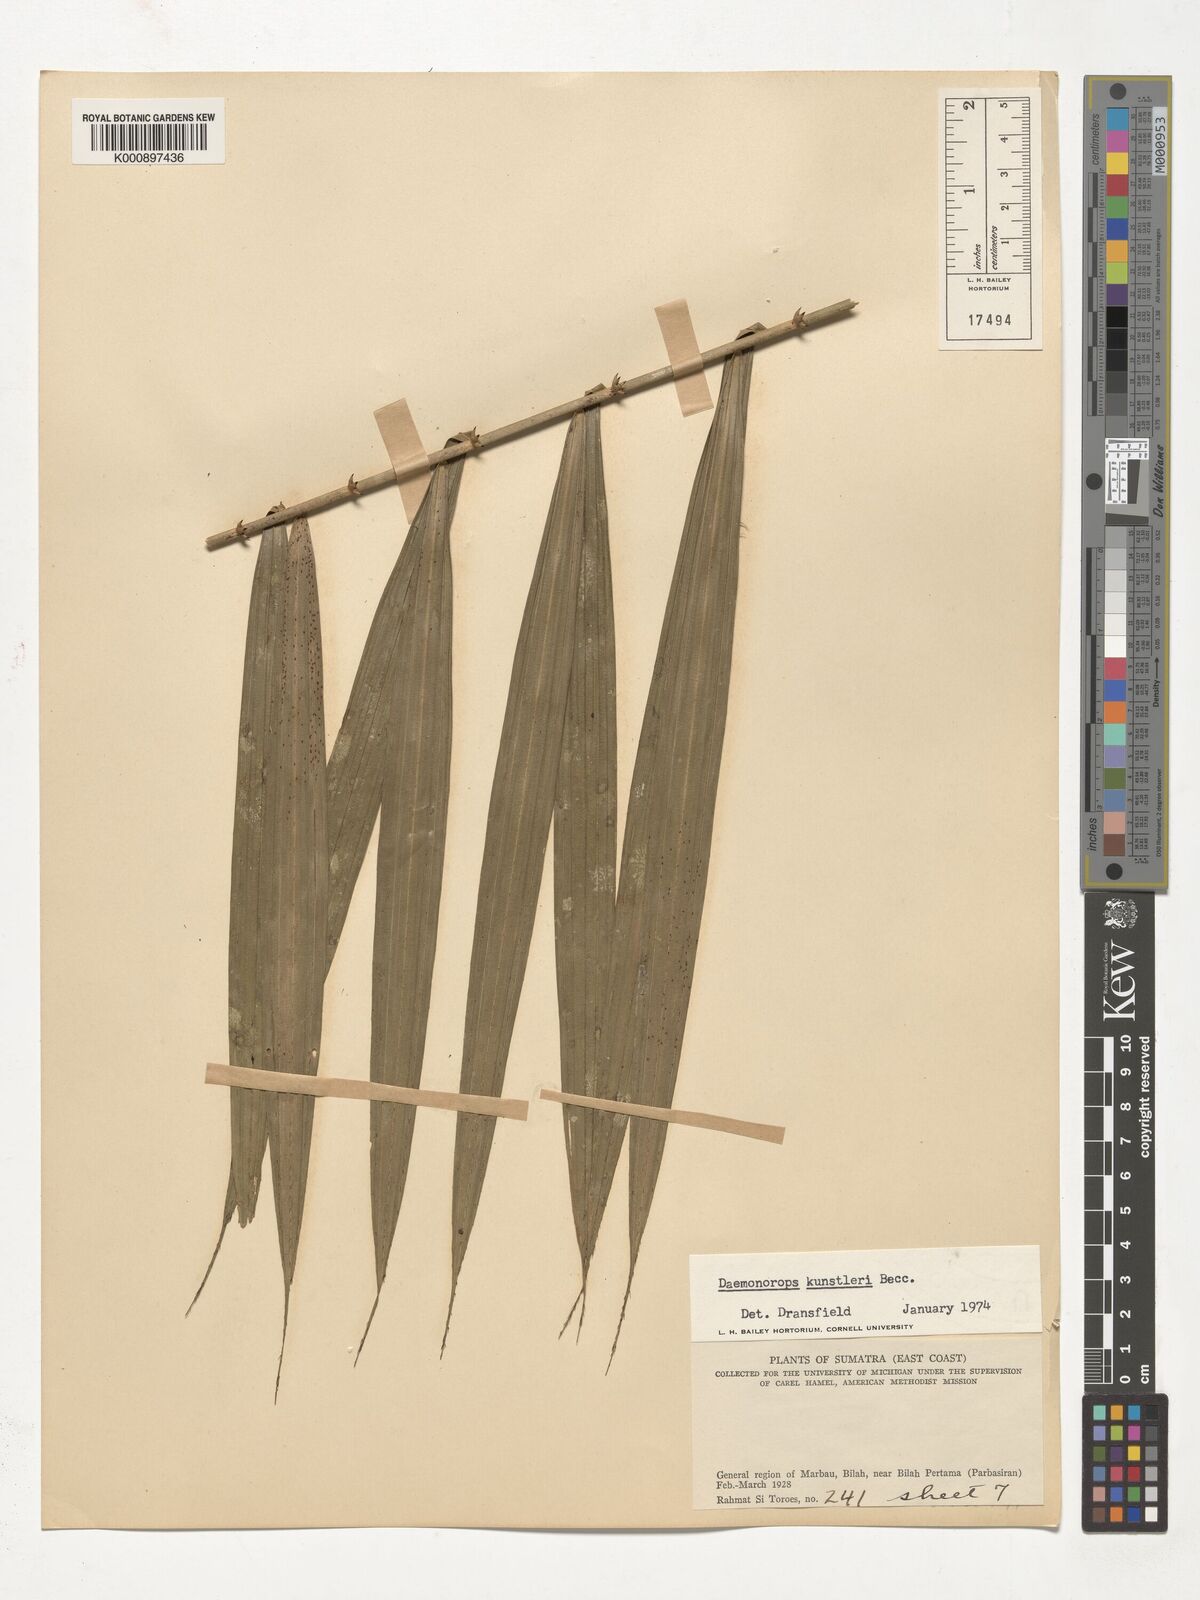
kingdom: Plantae
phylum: Tracheophyta
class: Liliopsida
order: Arecales
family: Arecaceae
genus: Calamus
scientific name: Calamus kunstleri
